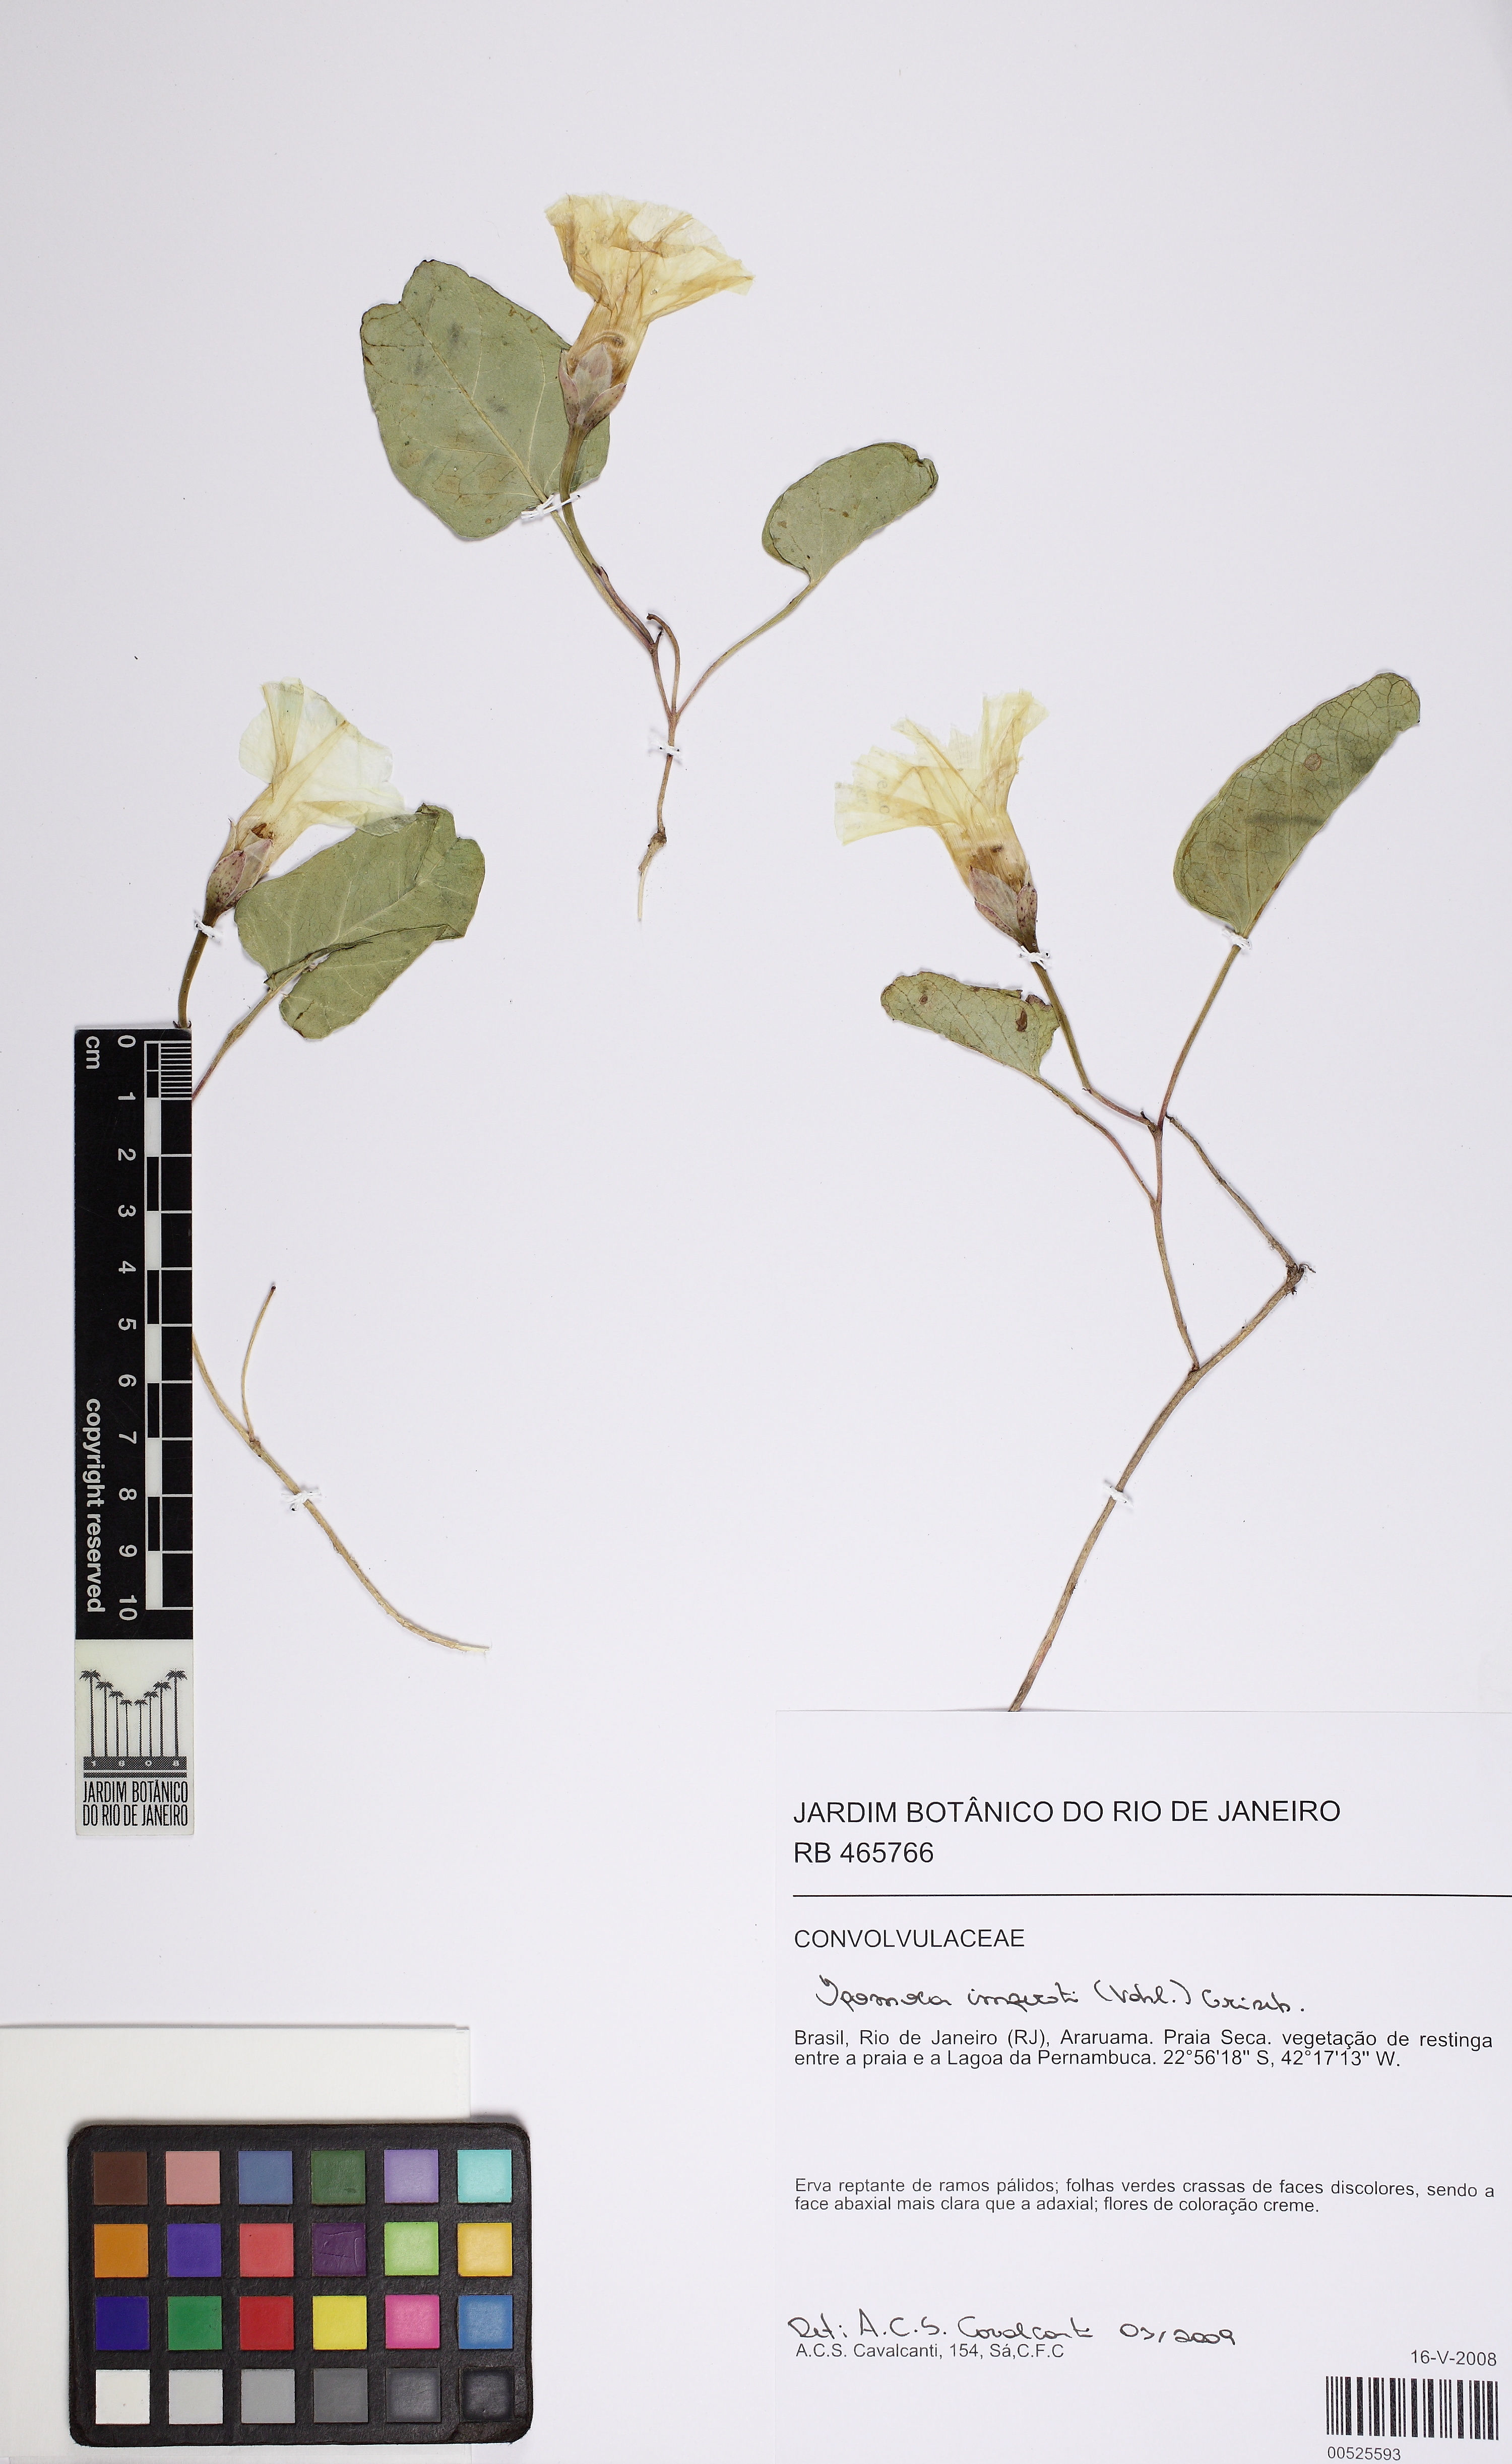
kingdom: Plantae
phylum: Tracheophyta
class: Magnoliopsida
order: Solanales
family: Convolvulaceae
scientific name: Convolvulaceae
